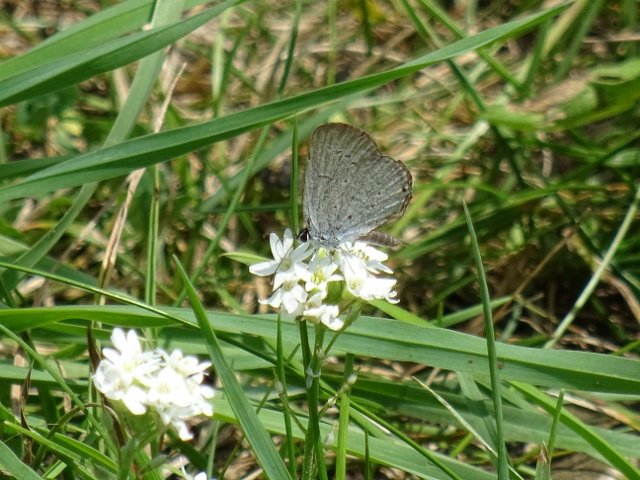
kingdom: Animalia
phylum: Arthropoda
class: Insecta
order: Lepidoptera
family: Lycaenidae
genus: Elkalyce
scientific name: Elkalyce comyntas
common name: Eastern Tailed-Blue
